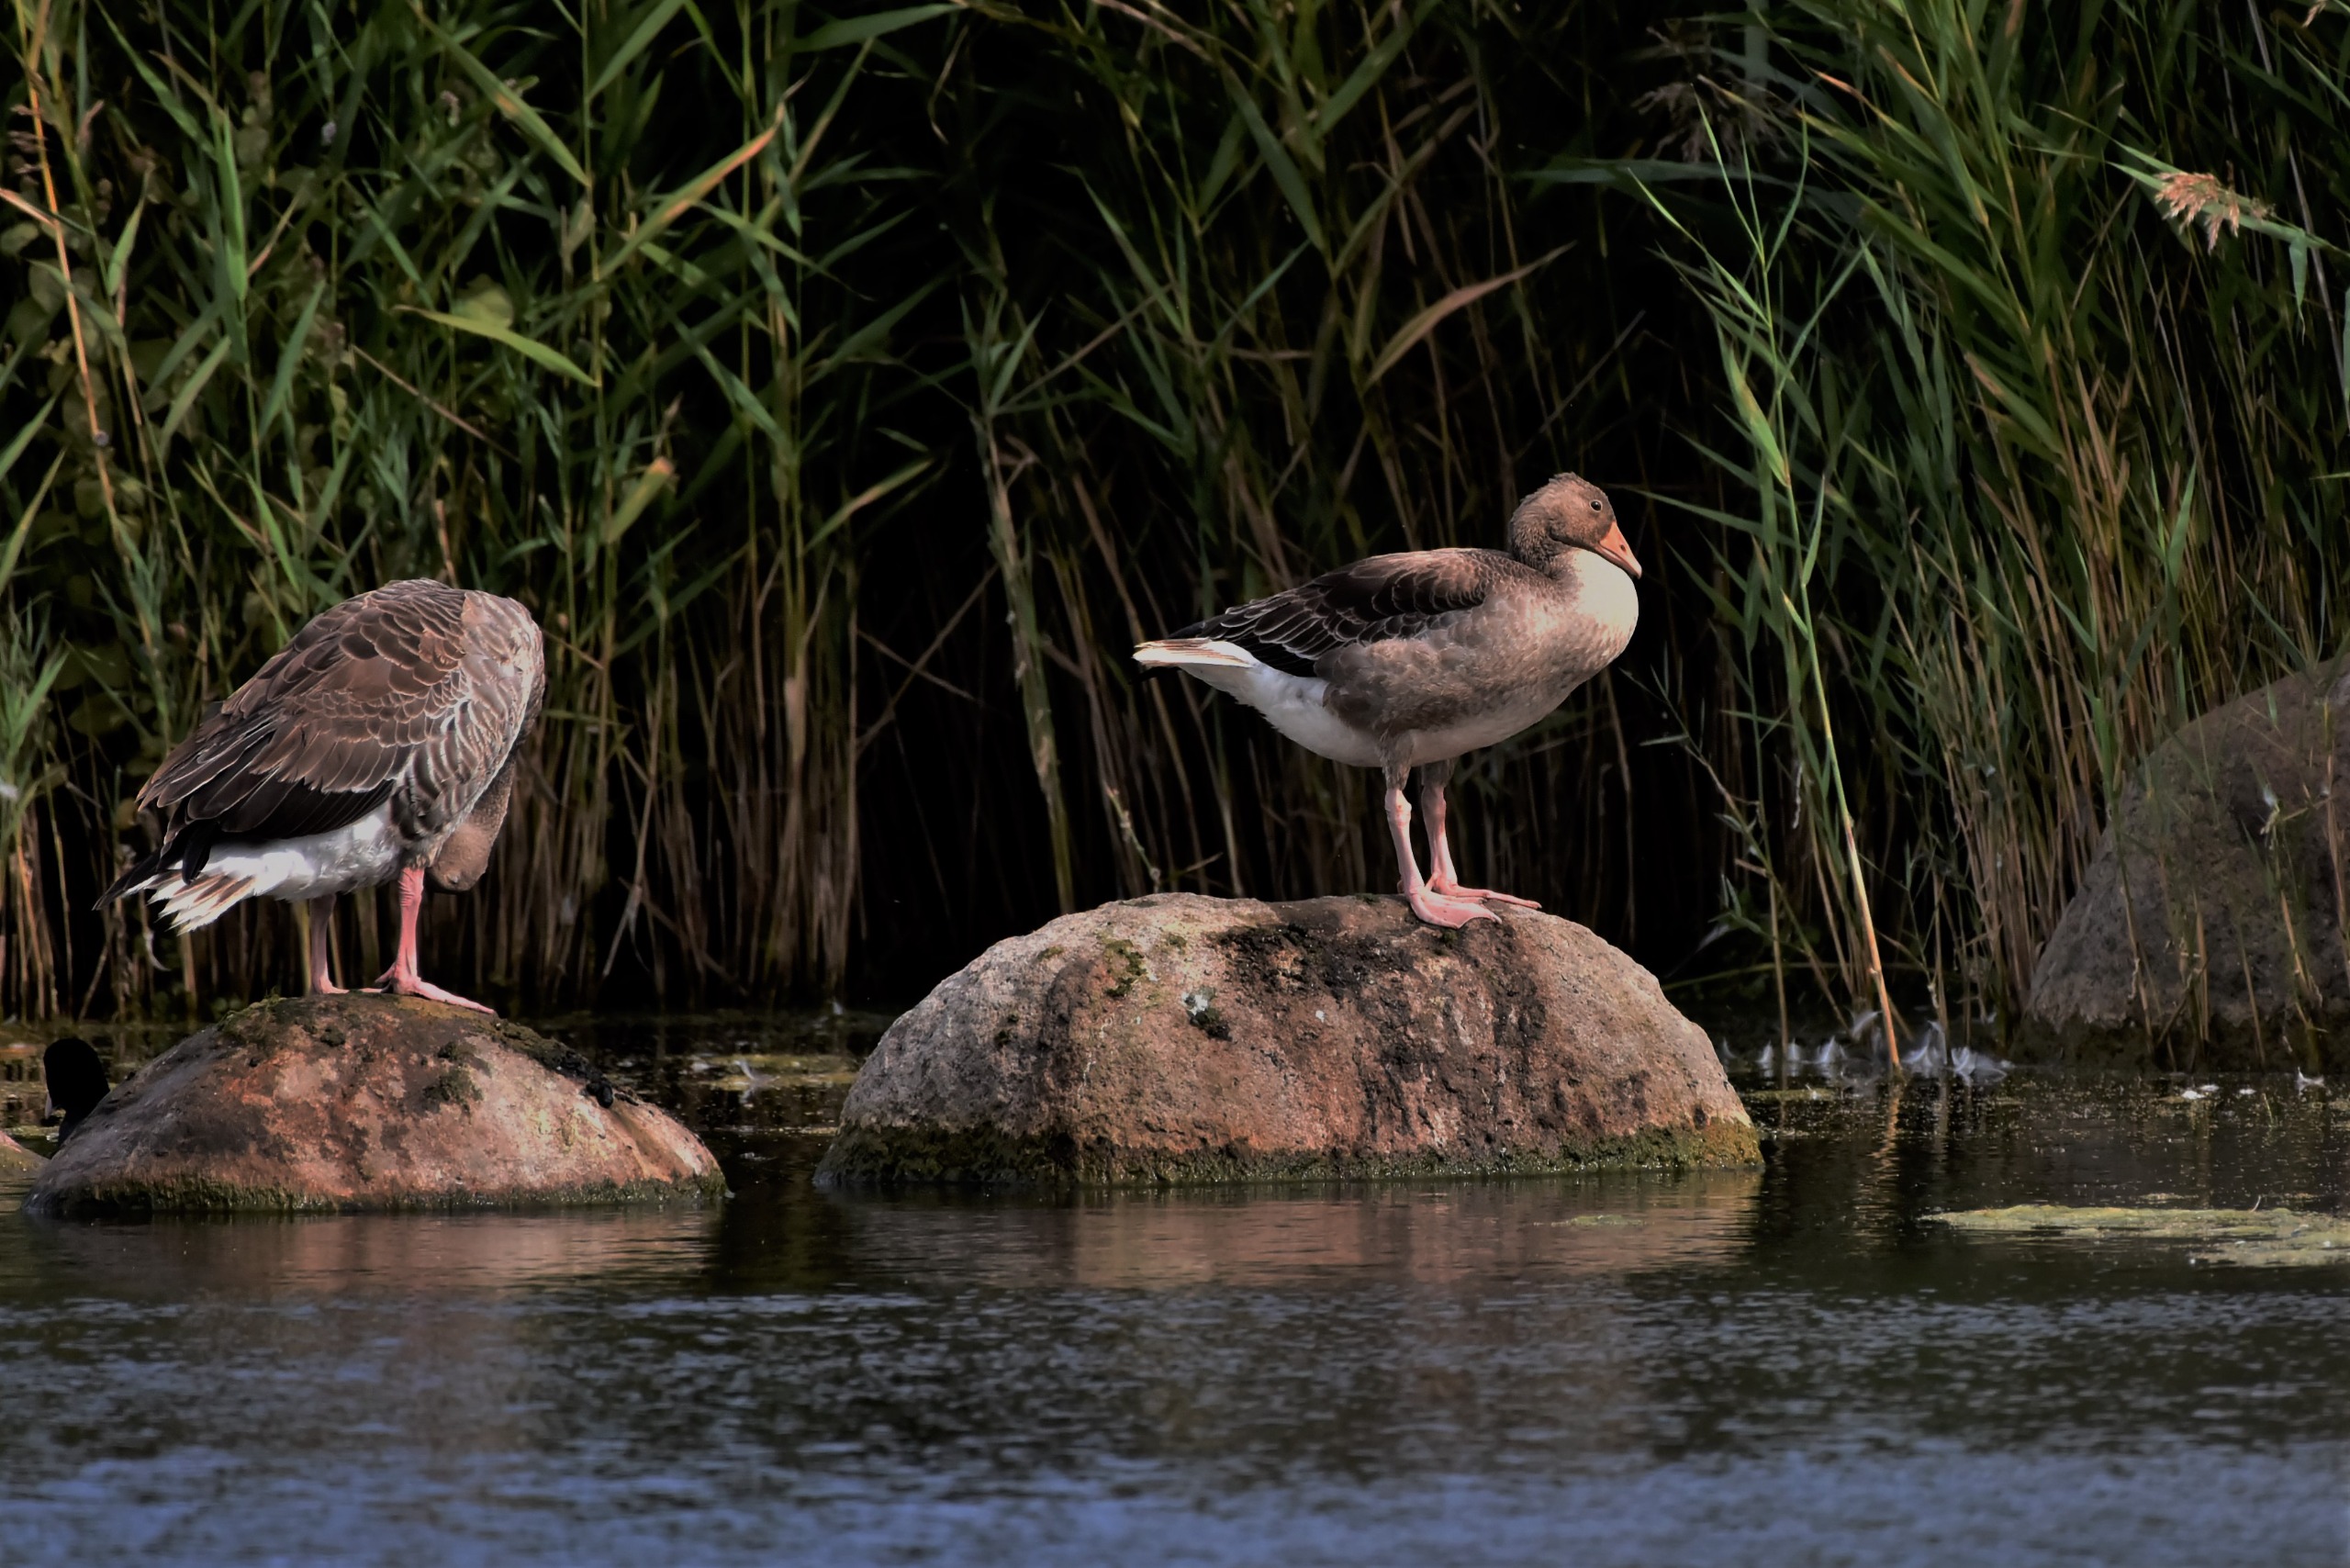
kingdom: Animalia
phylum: Chordata
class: Aves
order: Anseriformes
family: Anatidae
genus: Anser
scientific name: Anser anser
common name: Grågås
